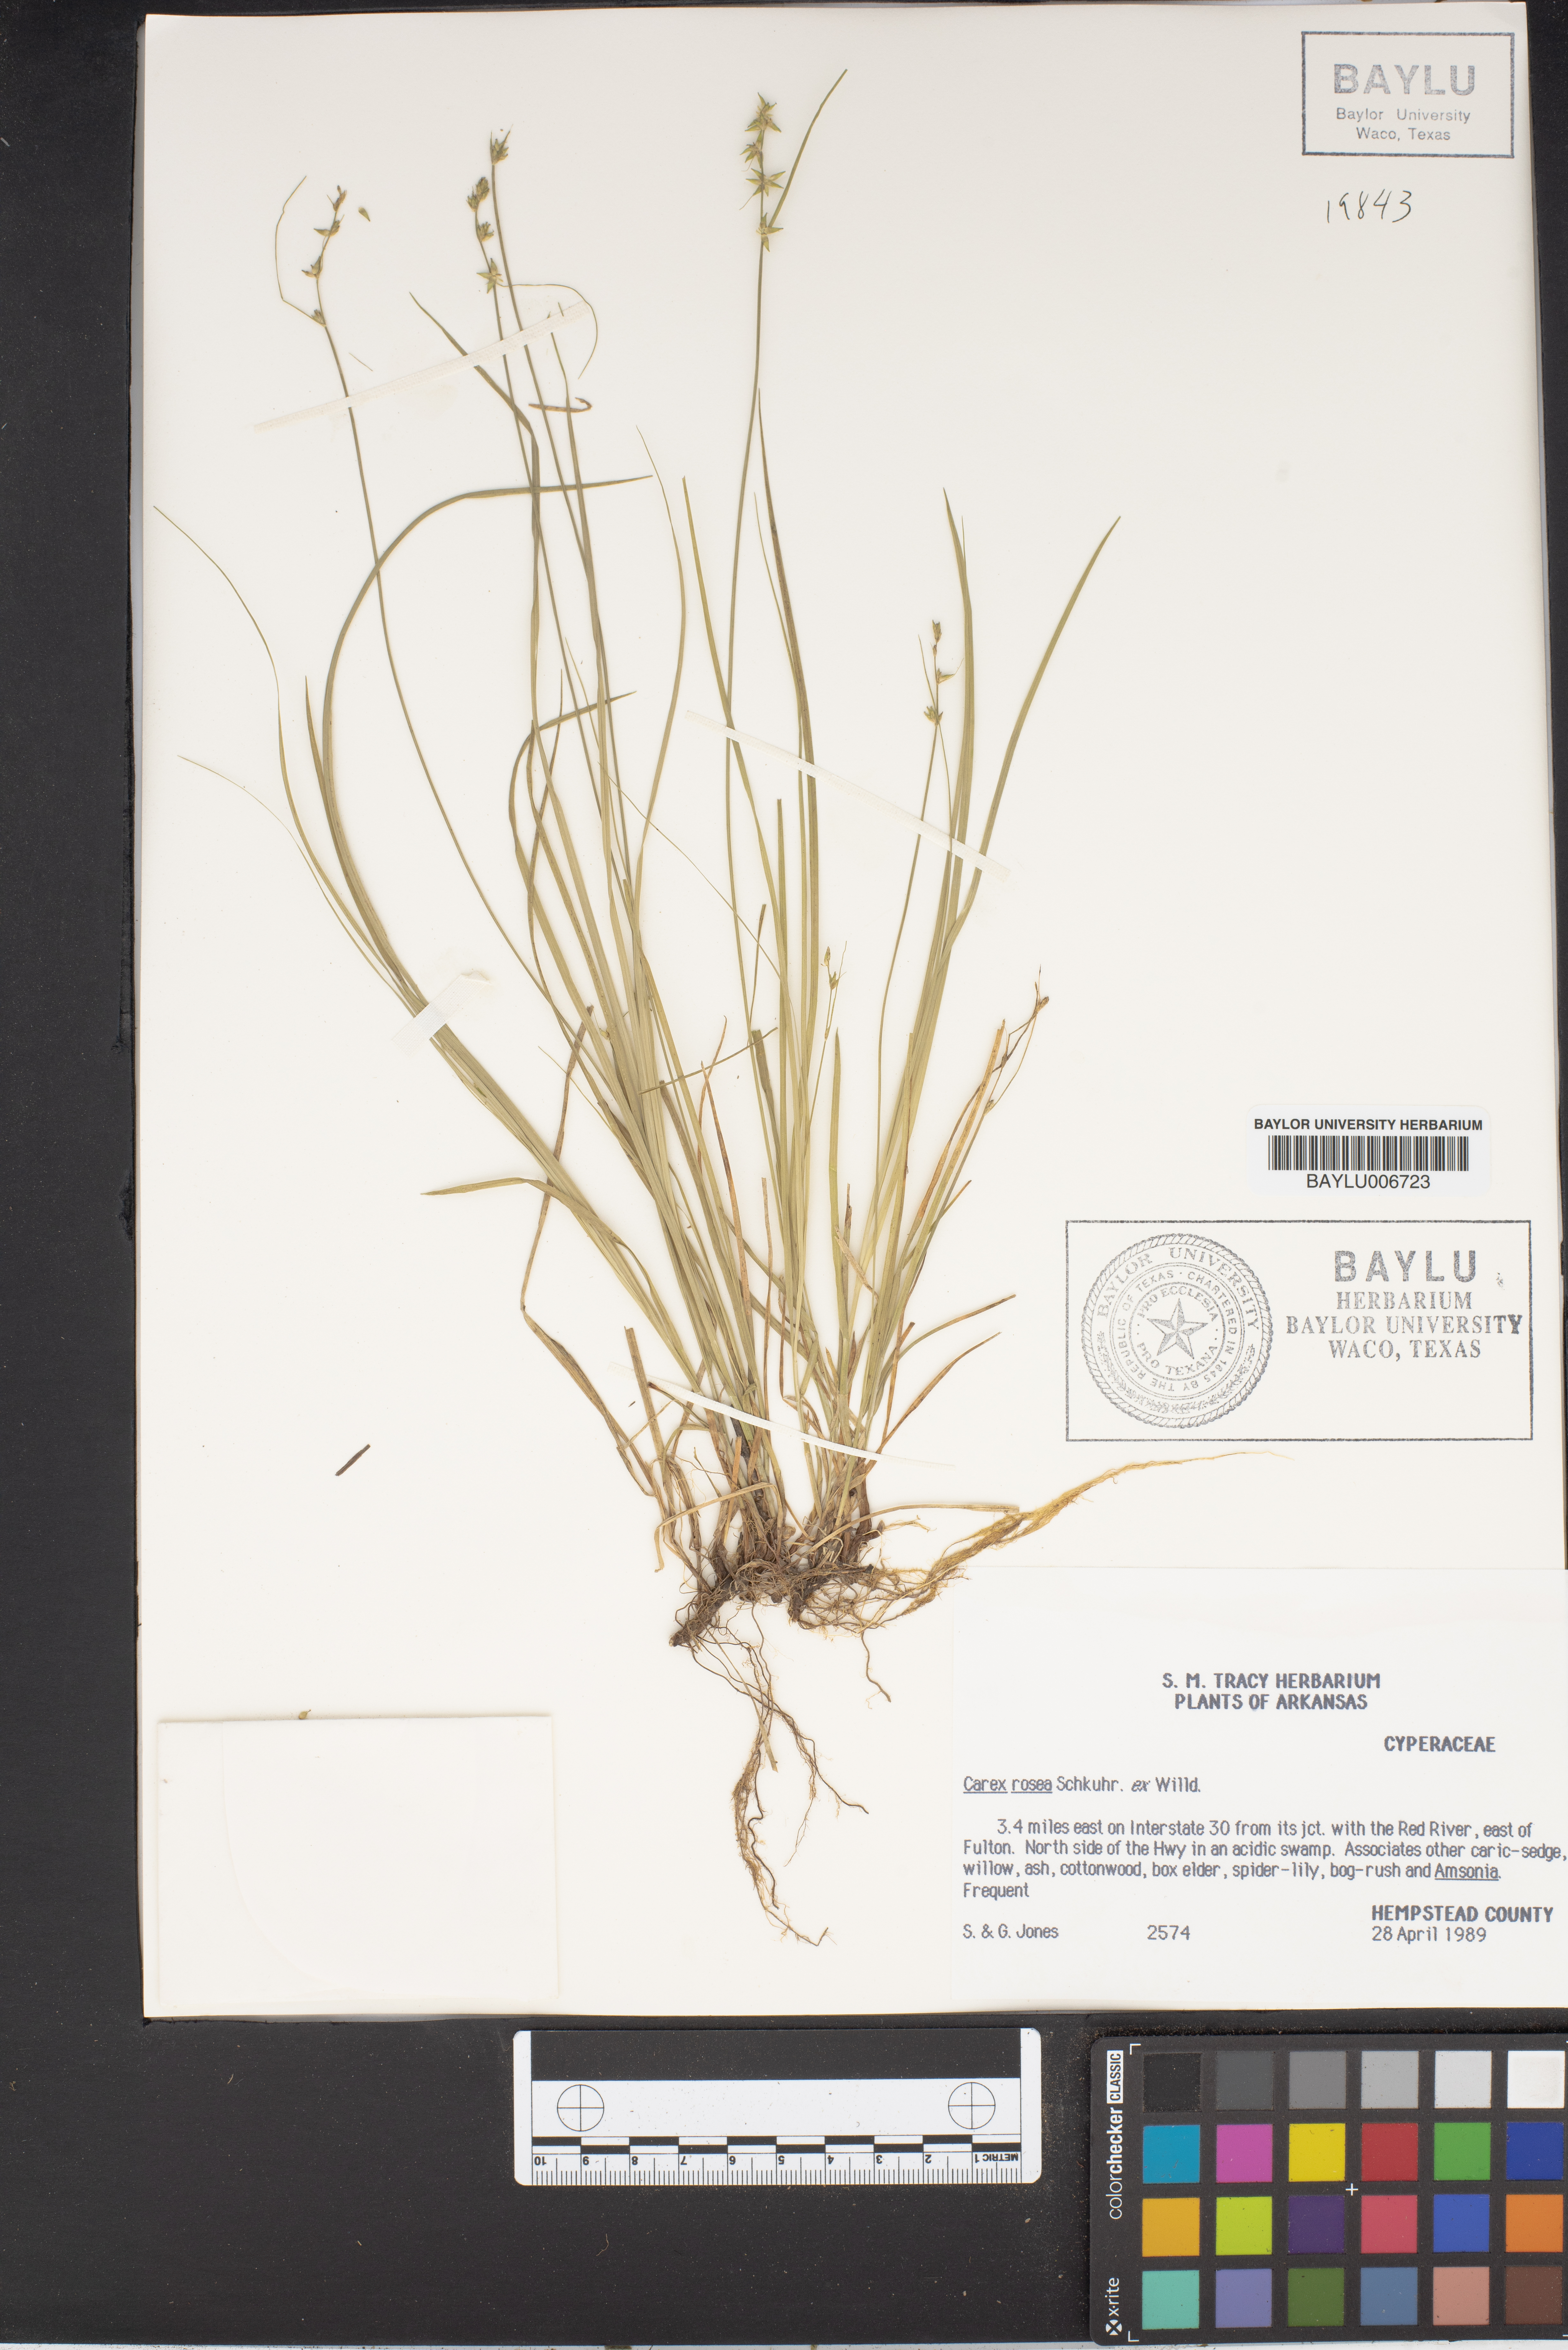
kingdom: Plantae
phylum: Tracheophyta
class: Liliopsida
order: Poales
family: Cyperaceae
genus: Carex
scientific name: Carex rosea
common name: Curly-styled wood sedge
